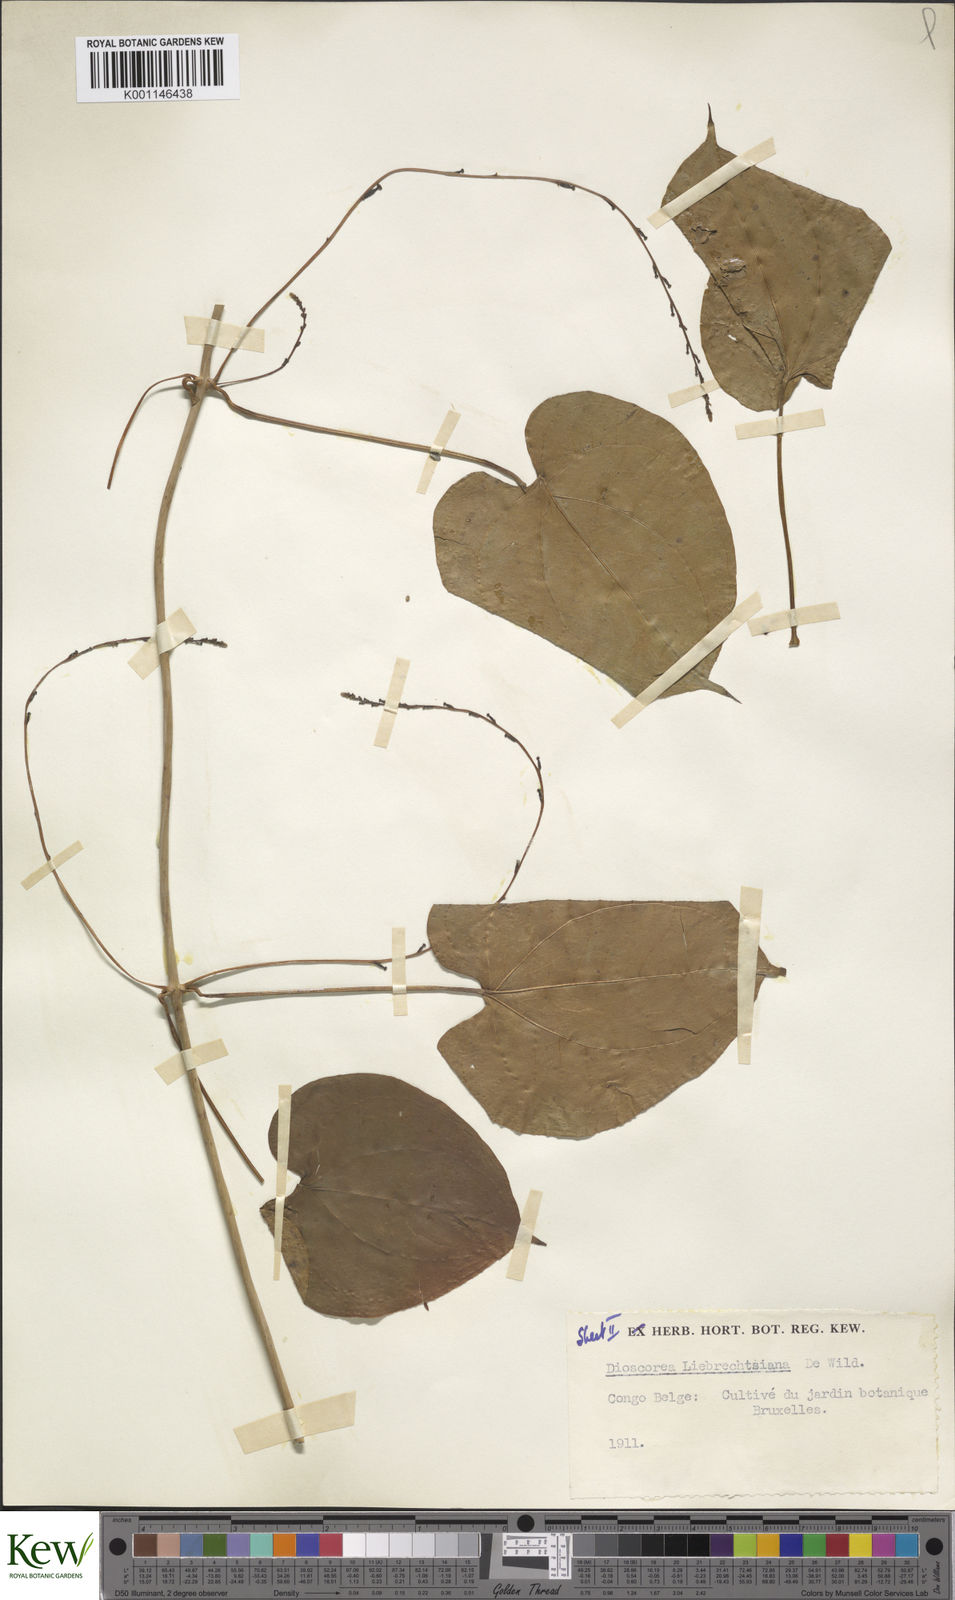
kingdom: Plantae
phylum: Tracheophyta
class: Liliopsida
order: Dioscoreales
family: Dioscoreaceae
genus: Dioscorea
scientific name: Dioscorea praehensilis
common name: Bush yam
